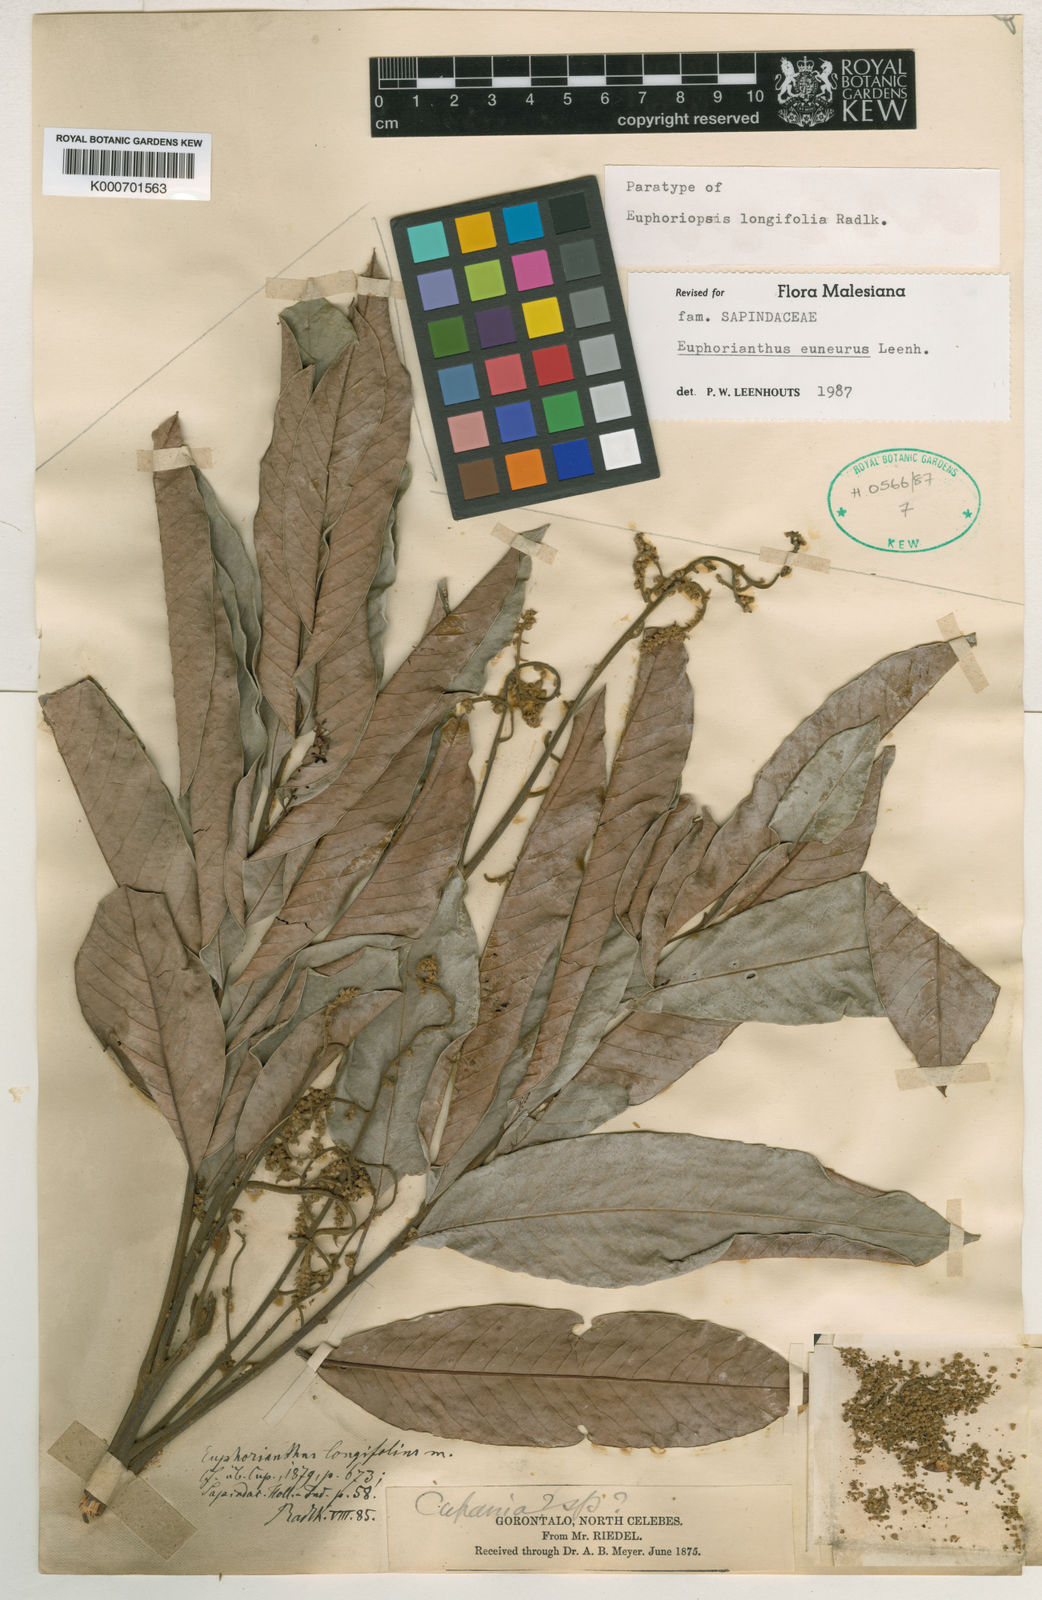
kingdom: Plantae
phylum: Tracheophyta
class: Magnoliopsida
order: Sapindales
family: Sapindaceae
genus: Euphorianthus
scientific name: Euphorianthus euneurus
